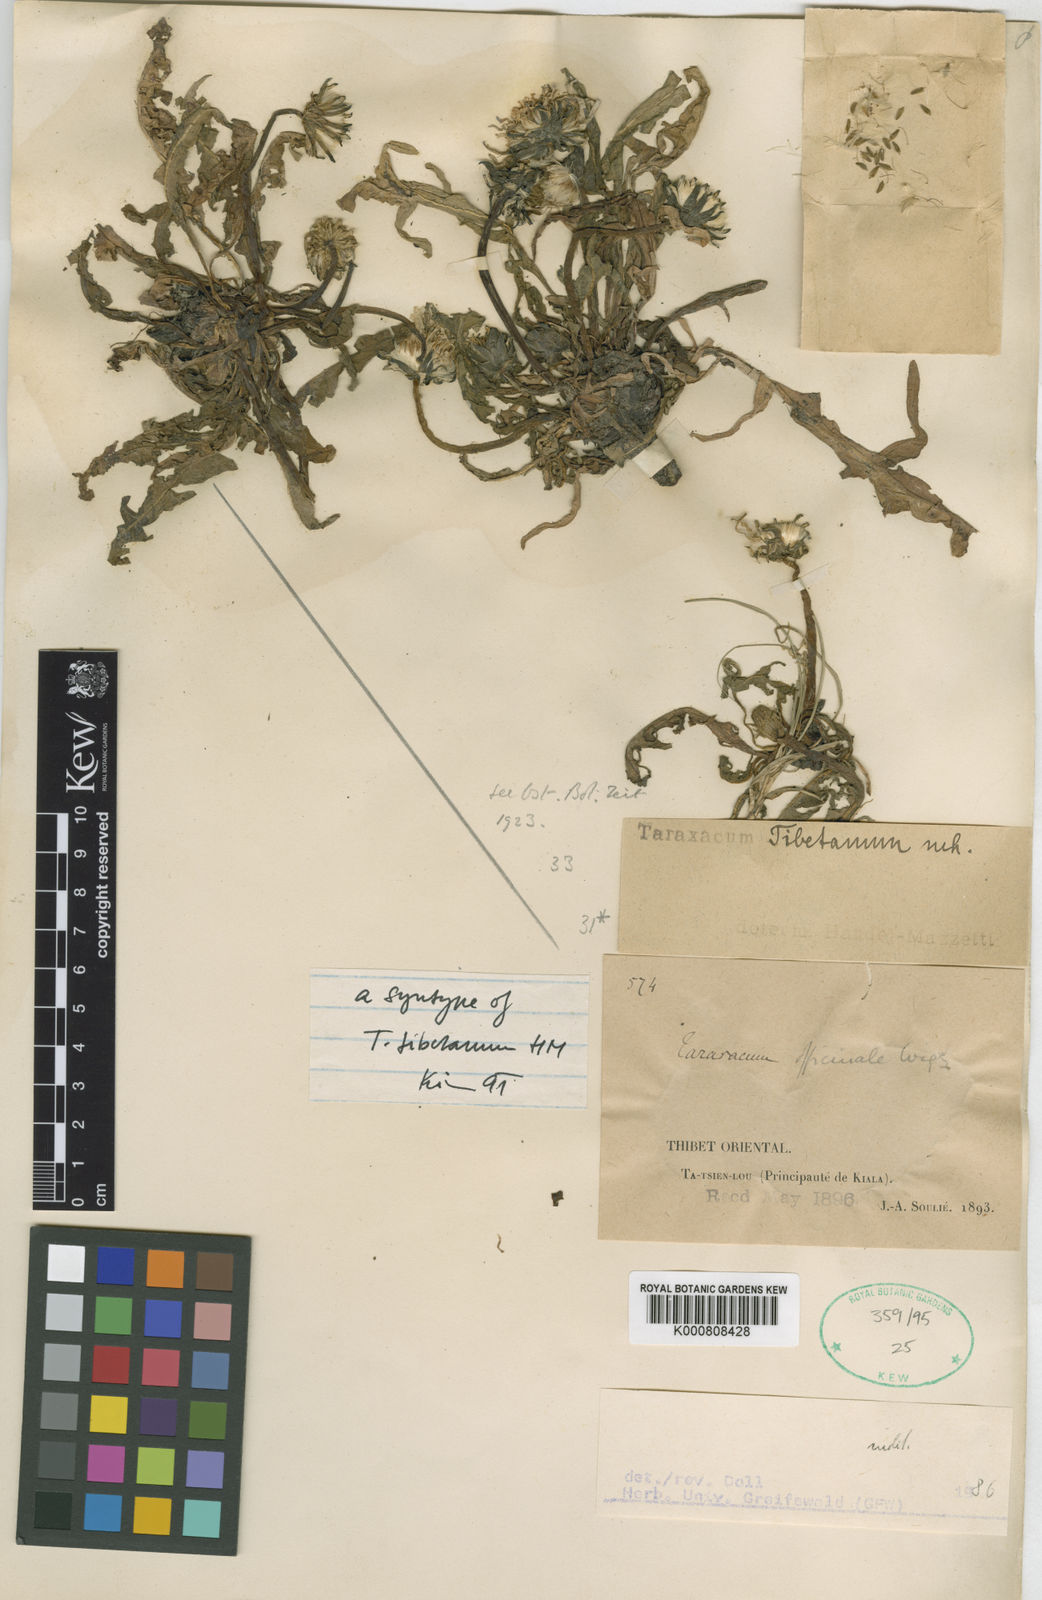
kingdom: Plantae
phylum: Tracheophyta
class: Magnoliopsida
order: Asterales
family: Asteraceae
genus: Taraxacum
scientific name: Taraxacum tibetanum
